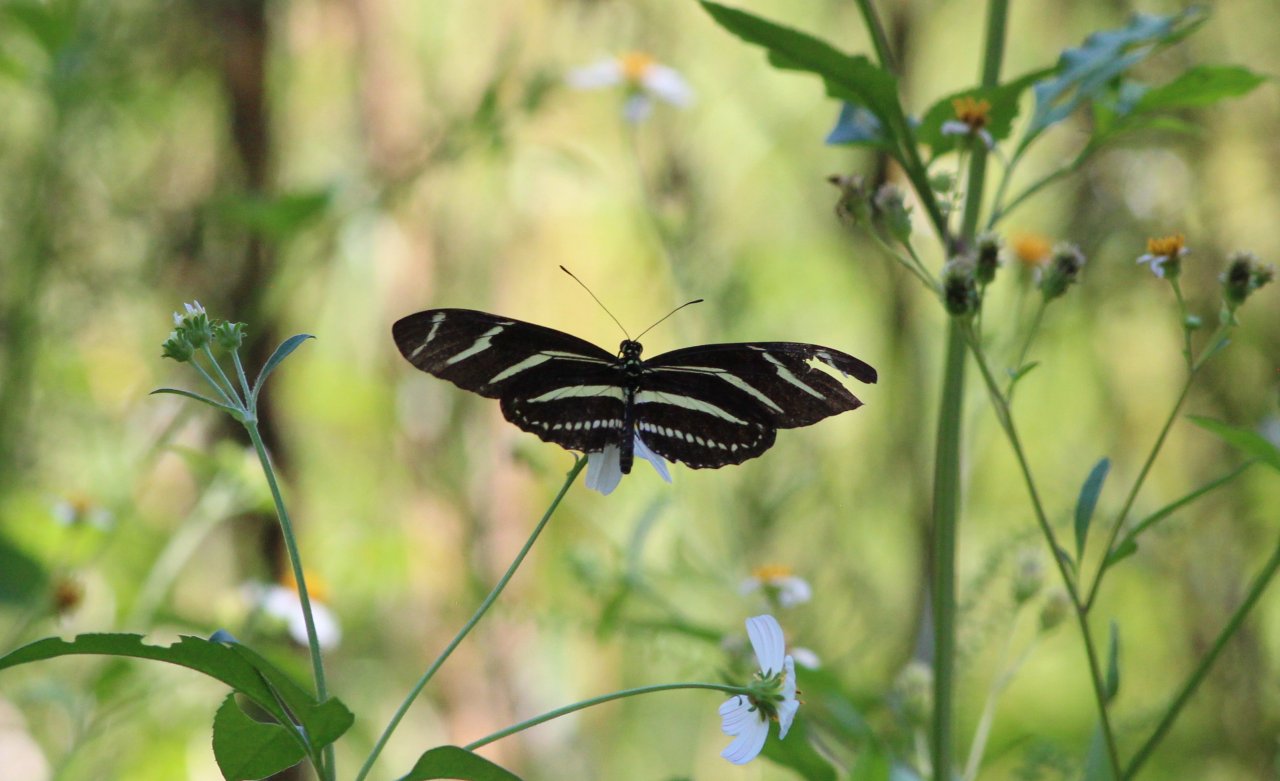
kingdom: Animalia
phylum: Arthropoda
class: Insecta
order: Lepidoptera
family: Nymphalidae
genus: Heliconius
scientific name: Heliconius charithonia
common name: Zebra Longwing
